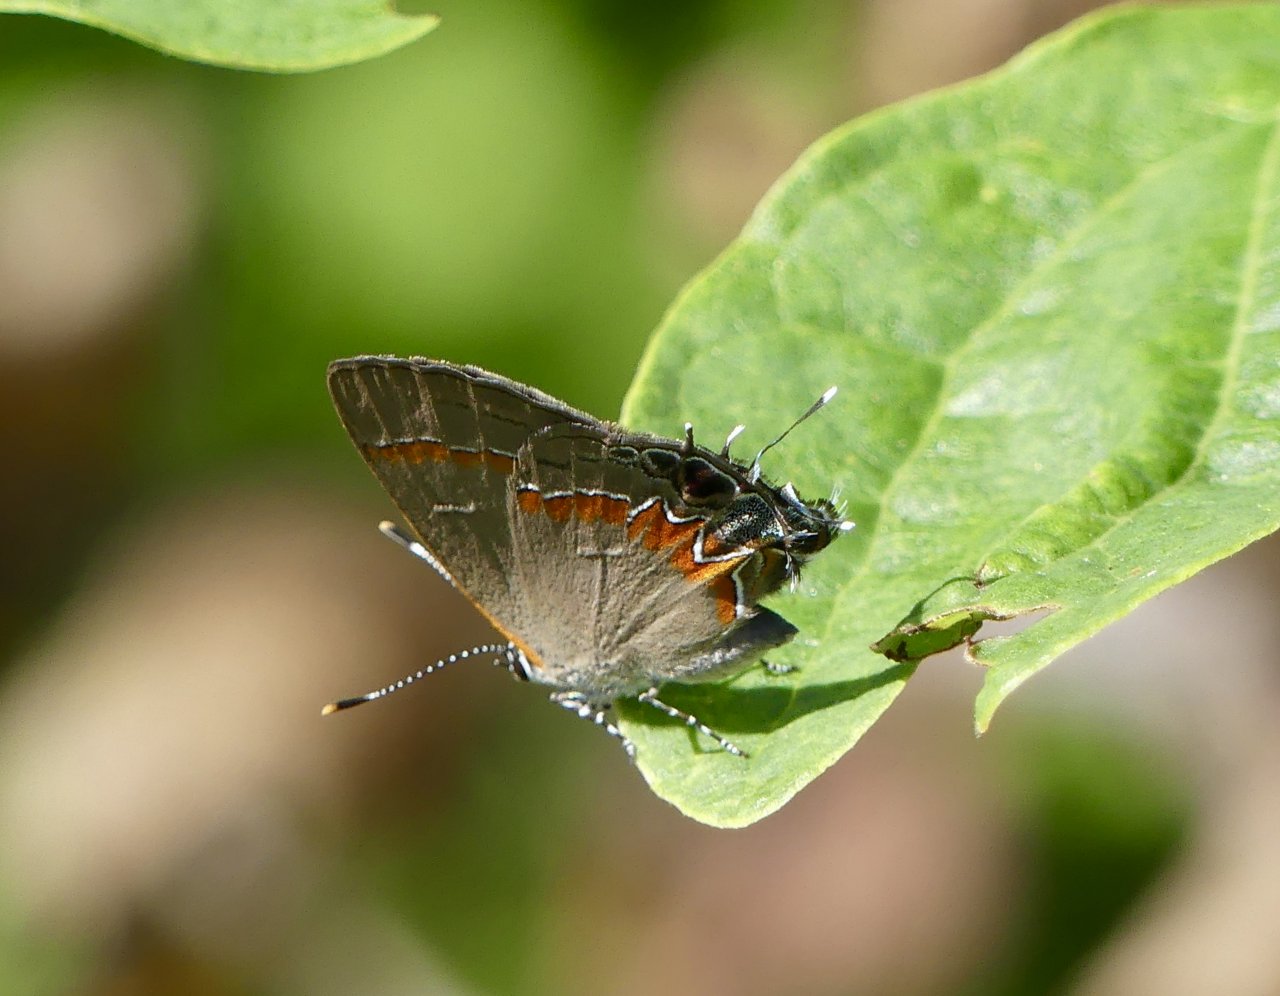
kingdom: Animalia
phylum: Arthropoda
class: Insecta
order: Lepidoptera
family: Lycaenidae
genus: Calycopis
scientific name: Calycopis cecrops
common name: Red-banded Hairstreak
